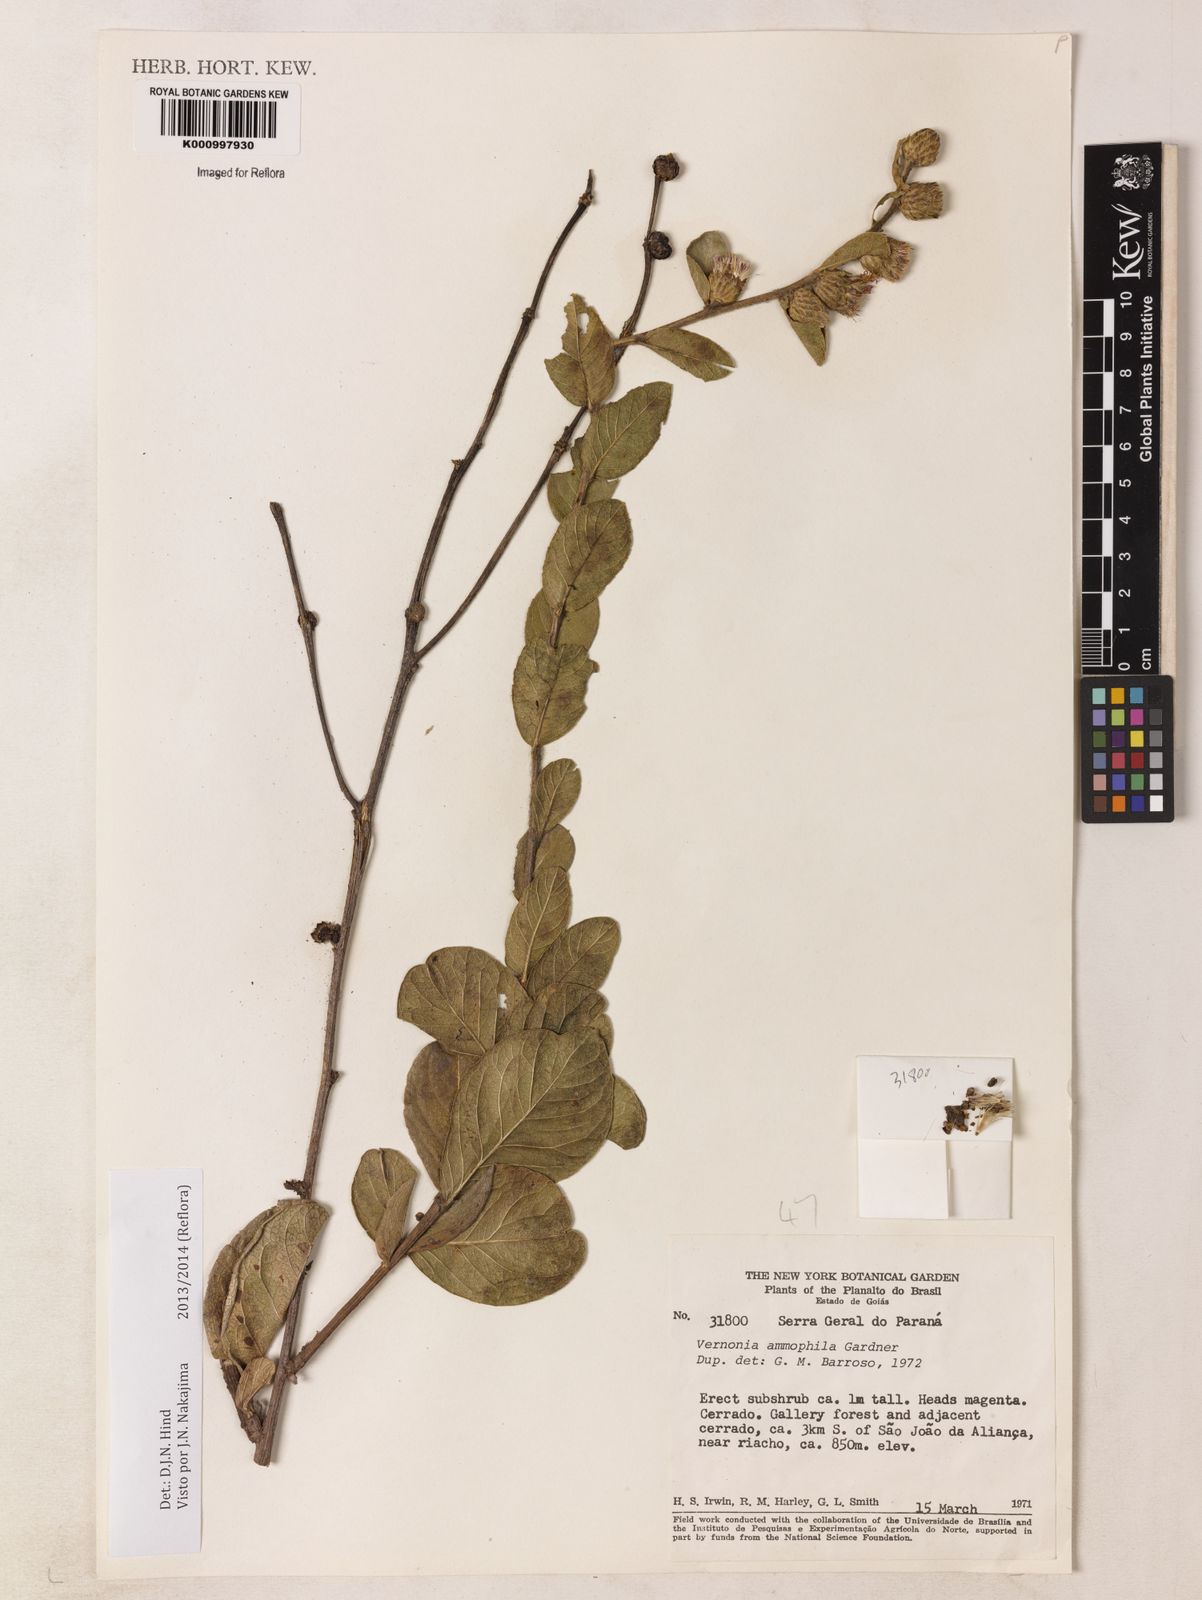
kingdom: Plantae
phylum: Tracheophyta
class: Magnoliopsida
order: Asterales
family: Asteraceae
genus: Lessingianthus
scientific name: Lessingianthus ammophilus
